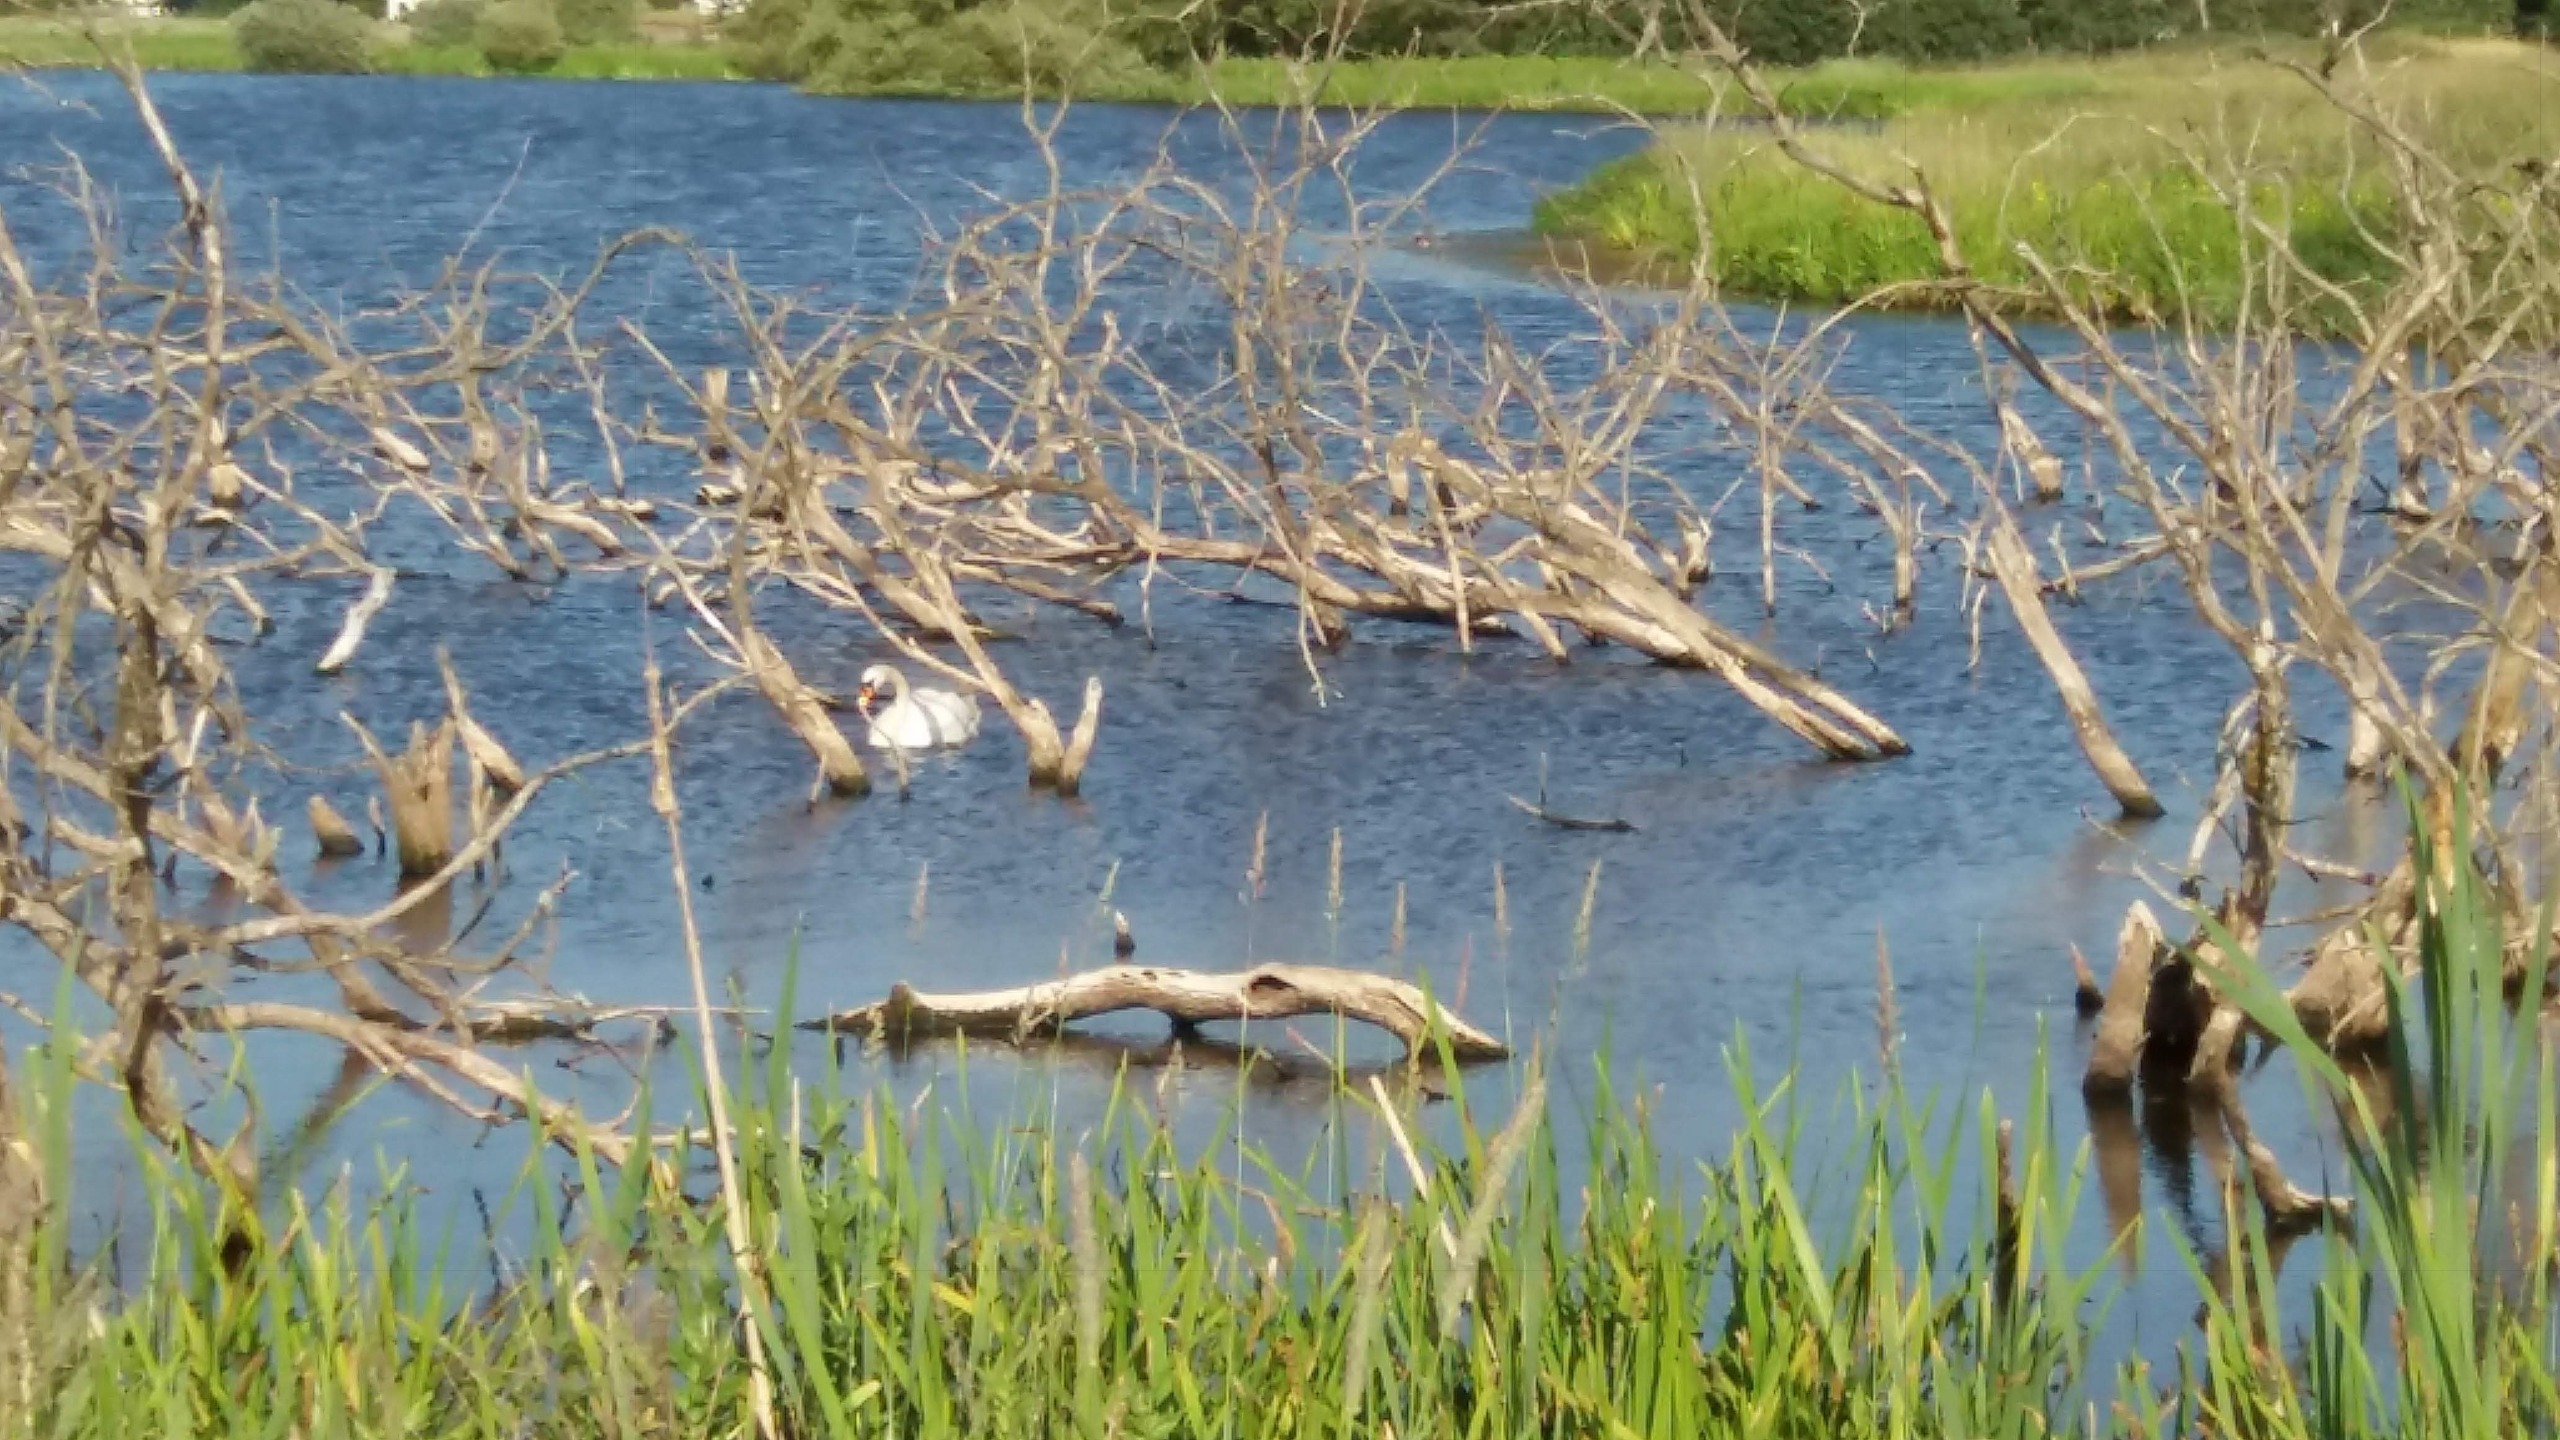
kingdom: Animalia
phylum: Chordata
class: Aves
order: Anseriformes
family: Anatidae
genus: Cygnus
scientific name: Cygnus olor
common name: Knopsvane
